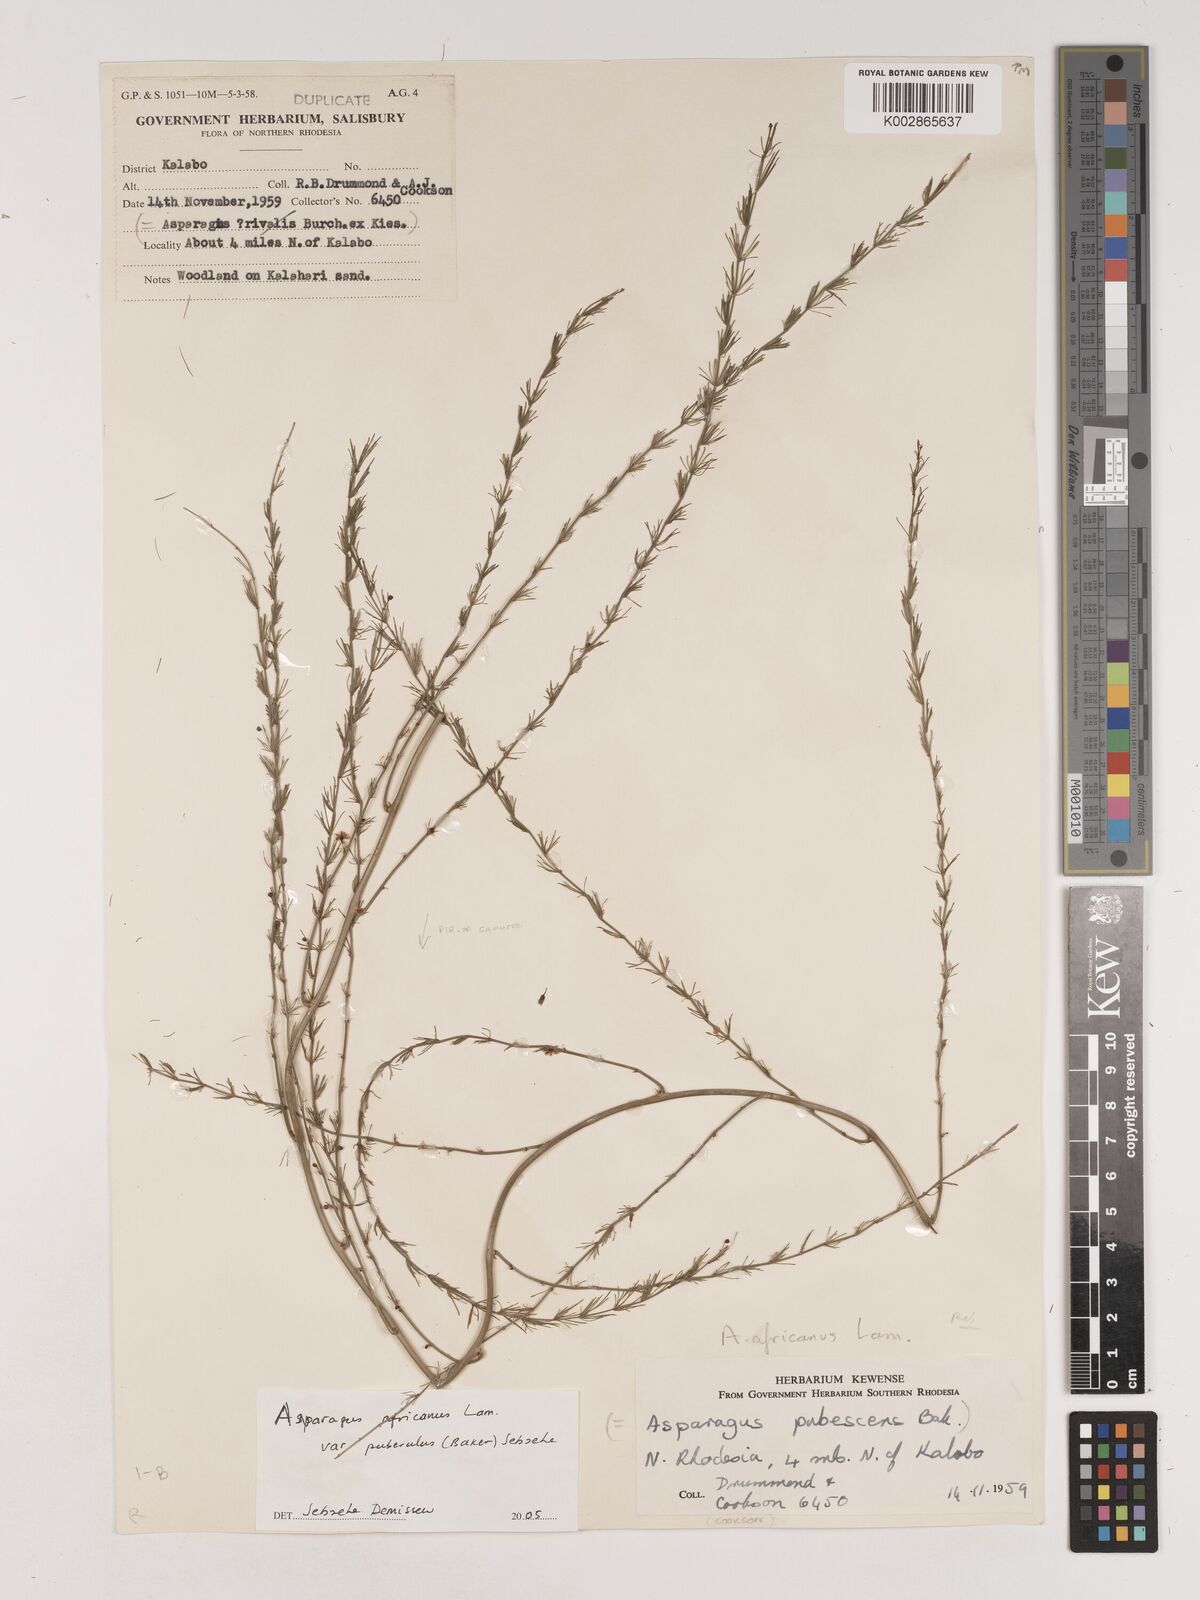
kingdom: Plantae
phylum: Tracheophyta
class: Liliopsida
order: Asparagales
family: Asparagaceae
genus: Asparagus
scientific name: Asparagus africanus
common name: Asparagus-fern
